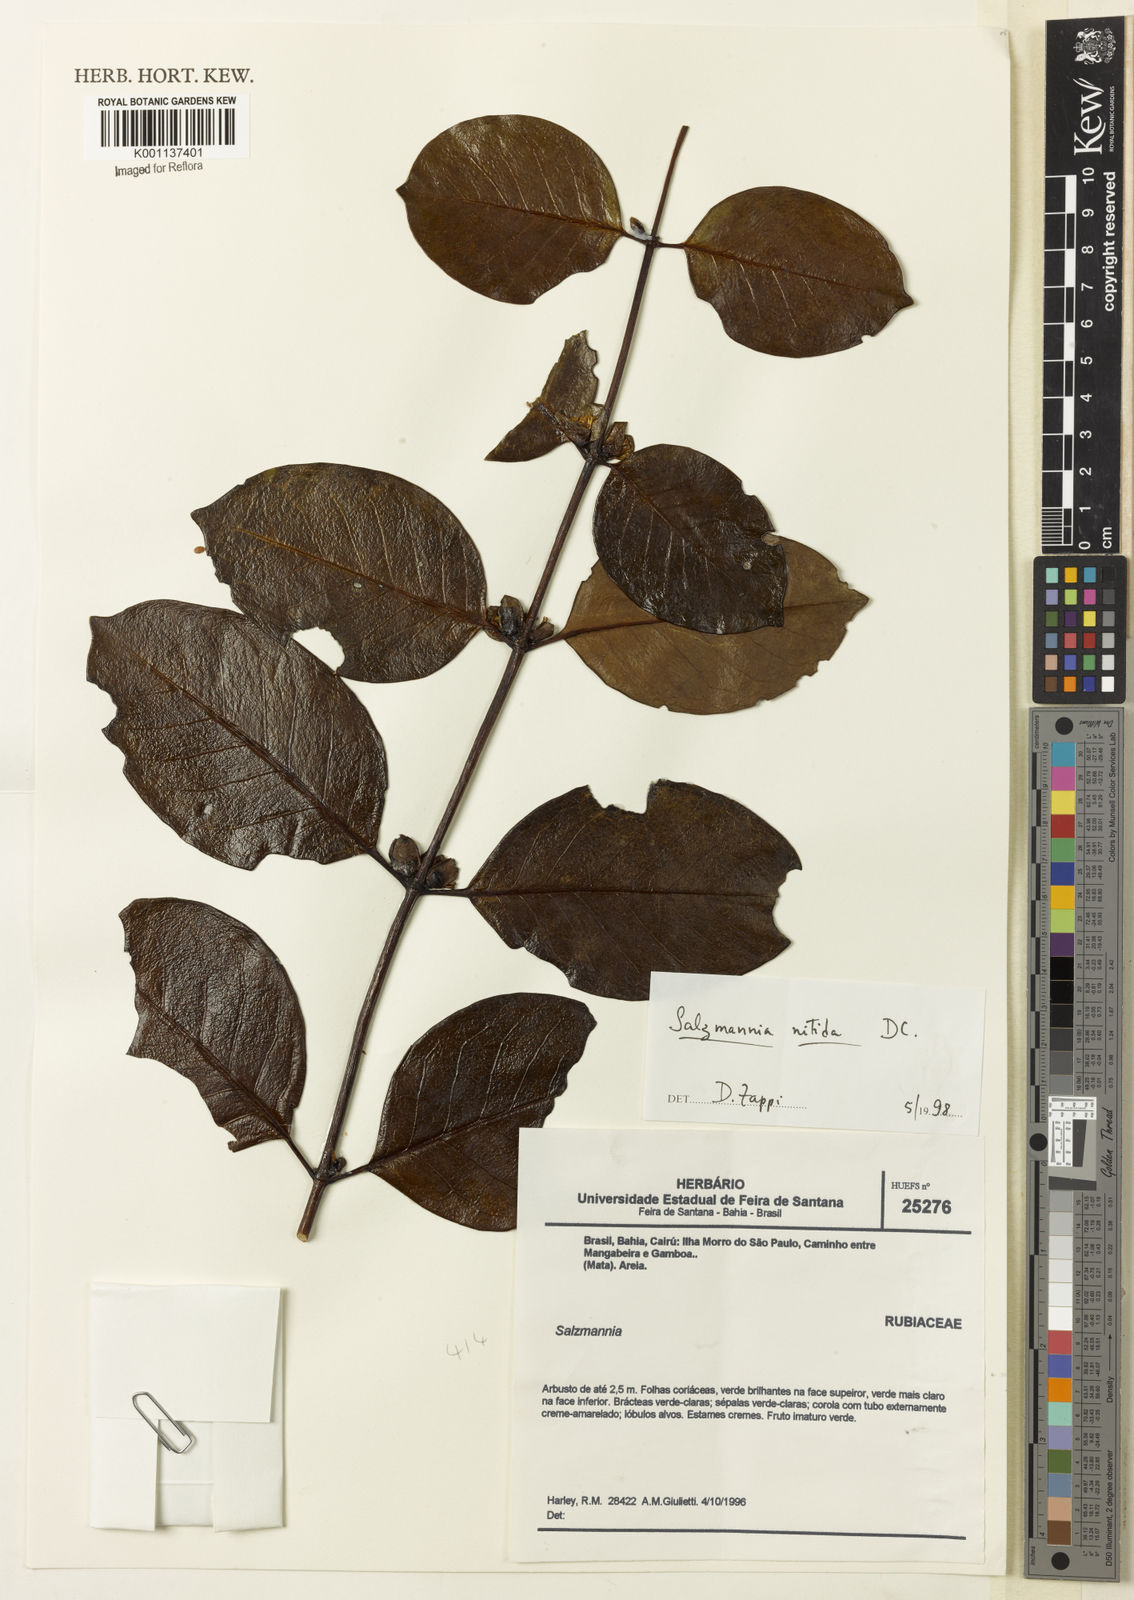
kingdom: Plantae
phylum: Tracheophyta
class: Magnoliopsida
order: Gentianales
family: Rubiaceae
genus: Salzmannia
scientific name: Salzmannia nitida
